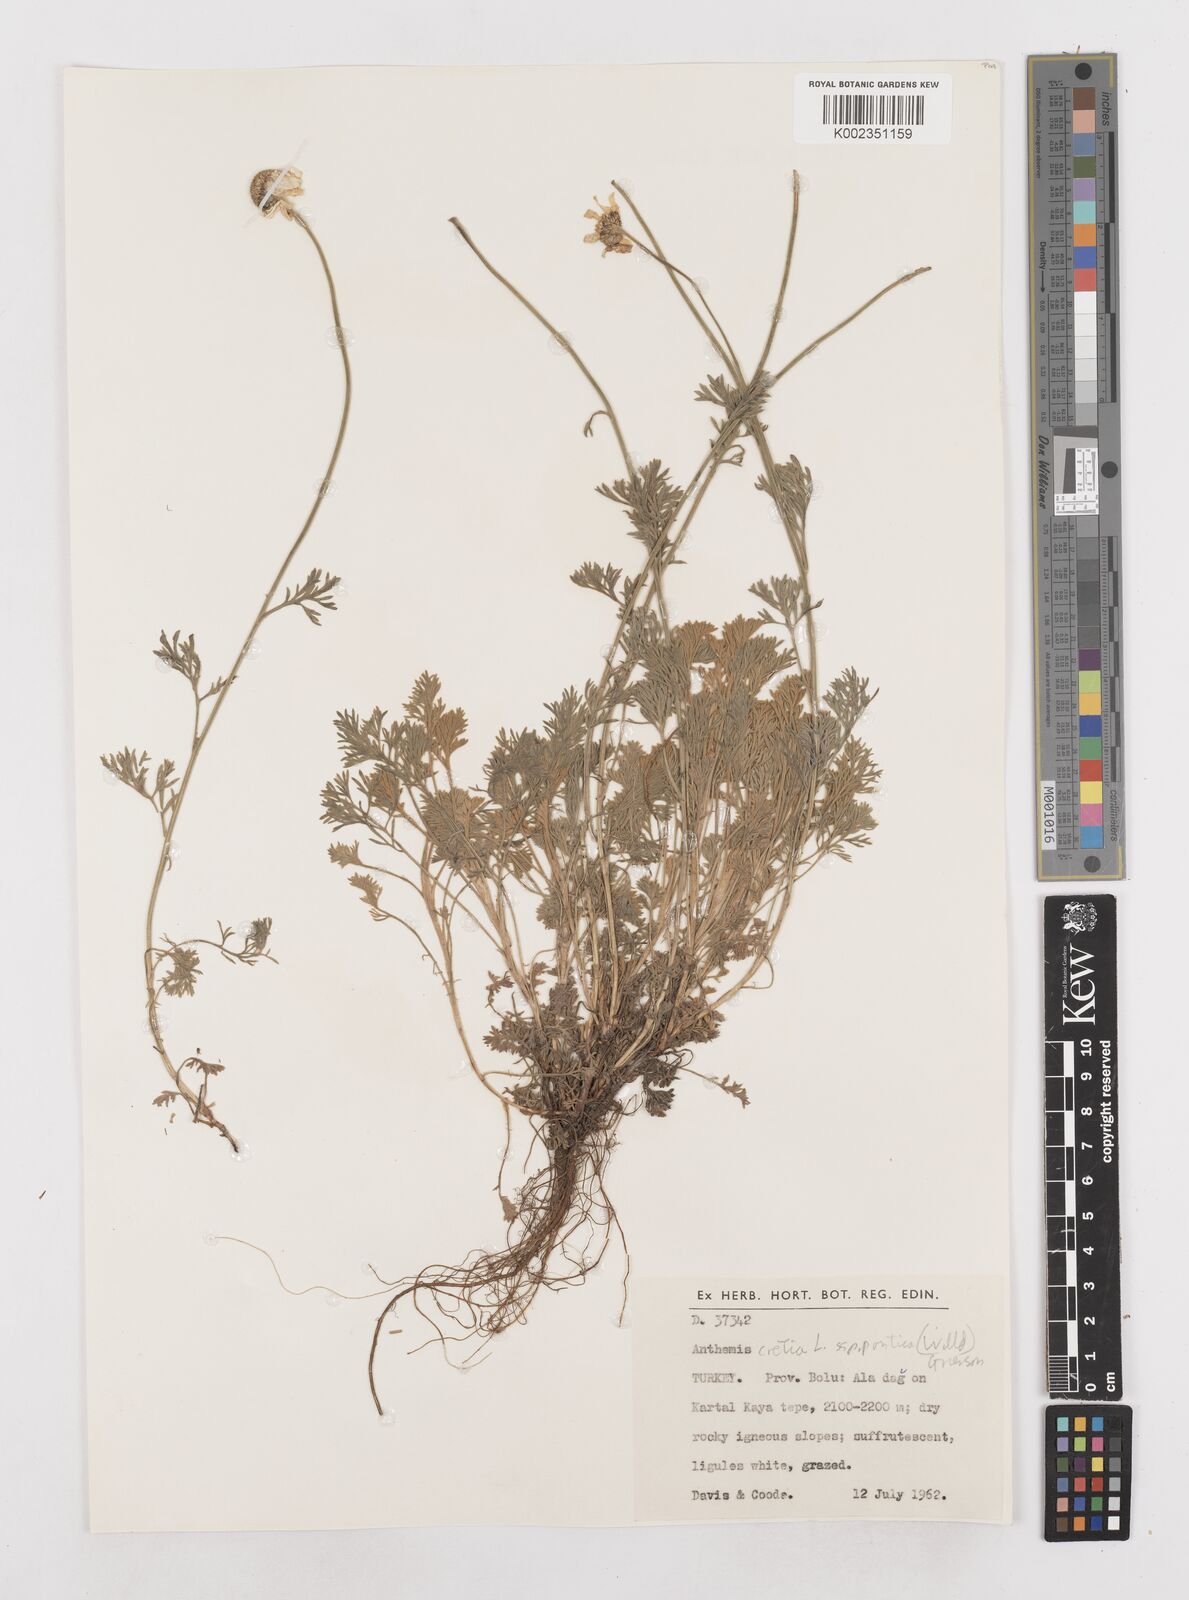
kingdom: Plantae
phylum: Tracheophyta
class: Magnoliopsida
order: Asterales
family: Asteraceae
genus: Anthemis
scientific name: Anthemis cretica
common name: Mountain dog-daisy
